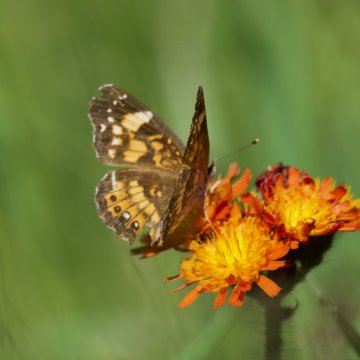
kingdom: Animalia
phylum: Arthropoda
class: Insecta
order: Lepidoptera
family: Nymphalidae
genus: Chlosyne
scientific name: Chlosyne nycteis
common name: Silvery Checkerspot
